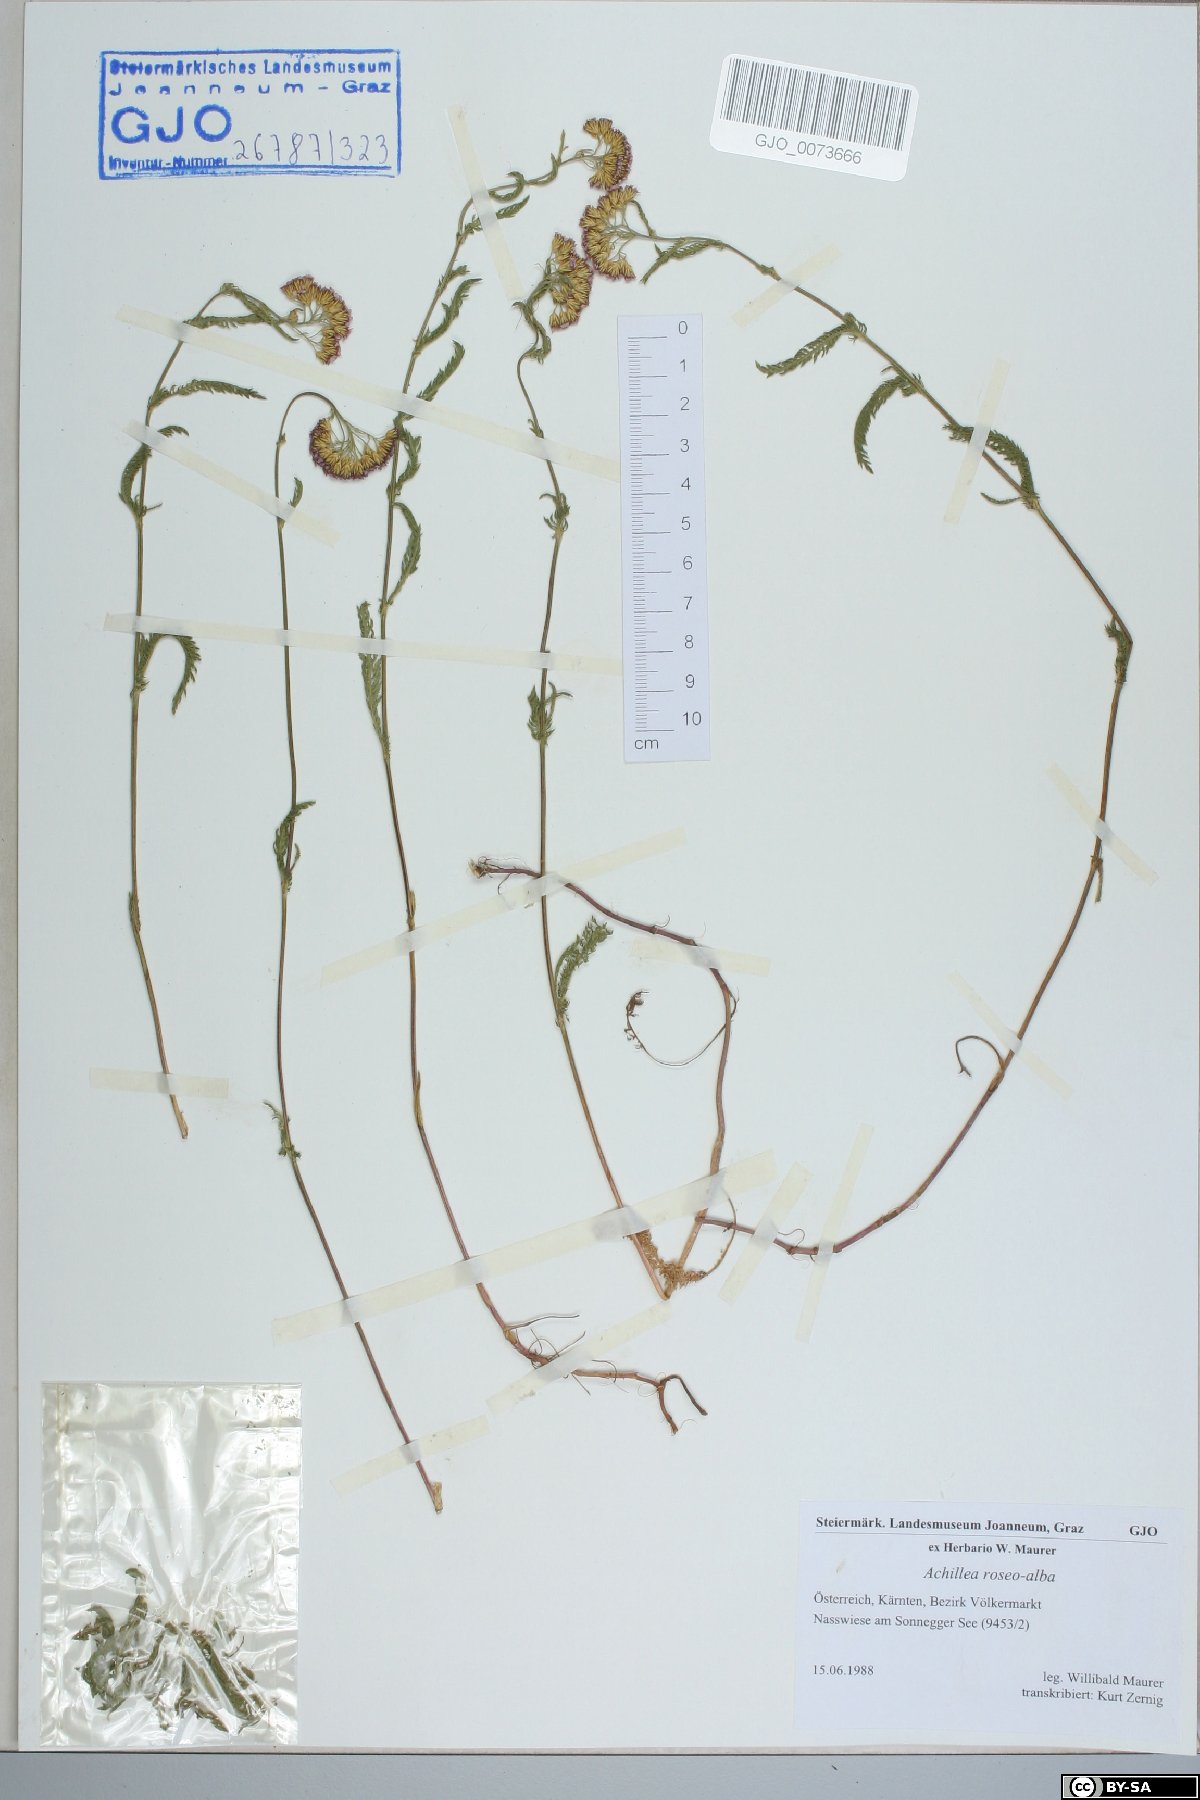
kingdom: Plantae
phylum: Tracheophyta
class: Magnoliopsida
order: Asterales
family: Asteraceae
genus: Achillea
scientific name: Achillea roseoalba
